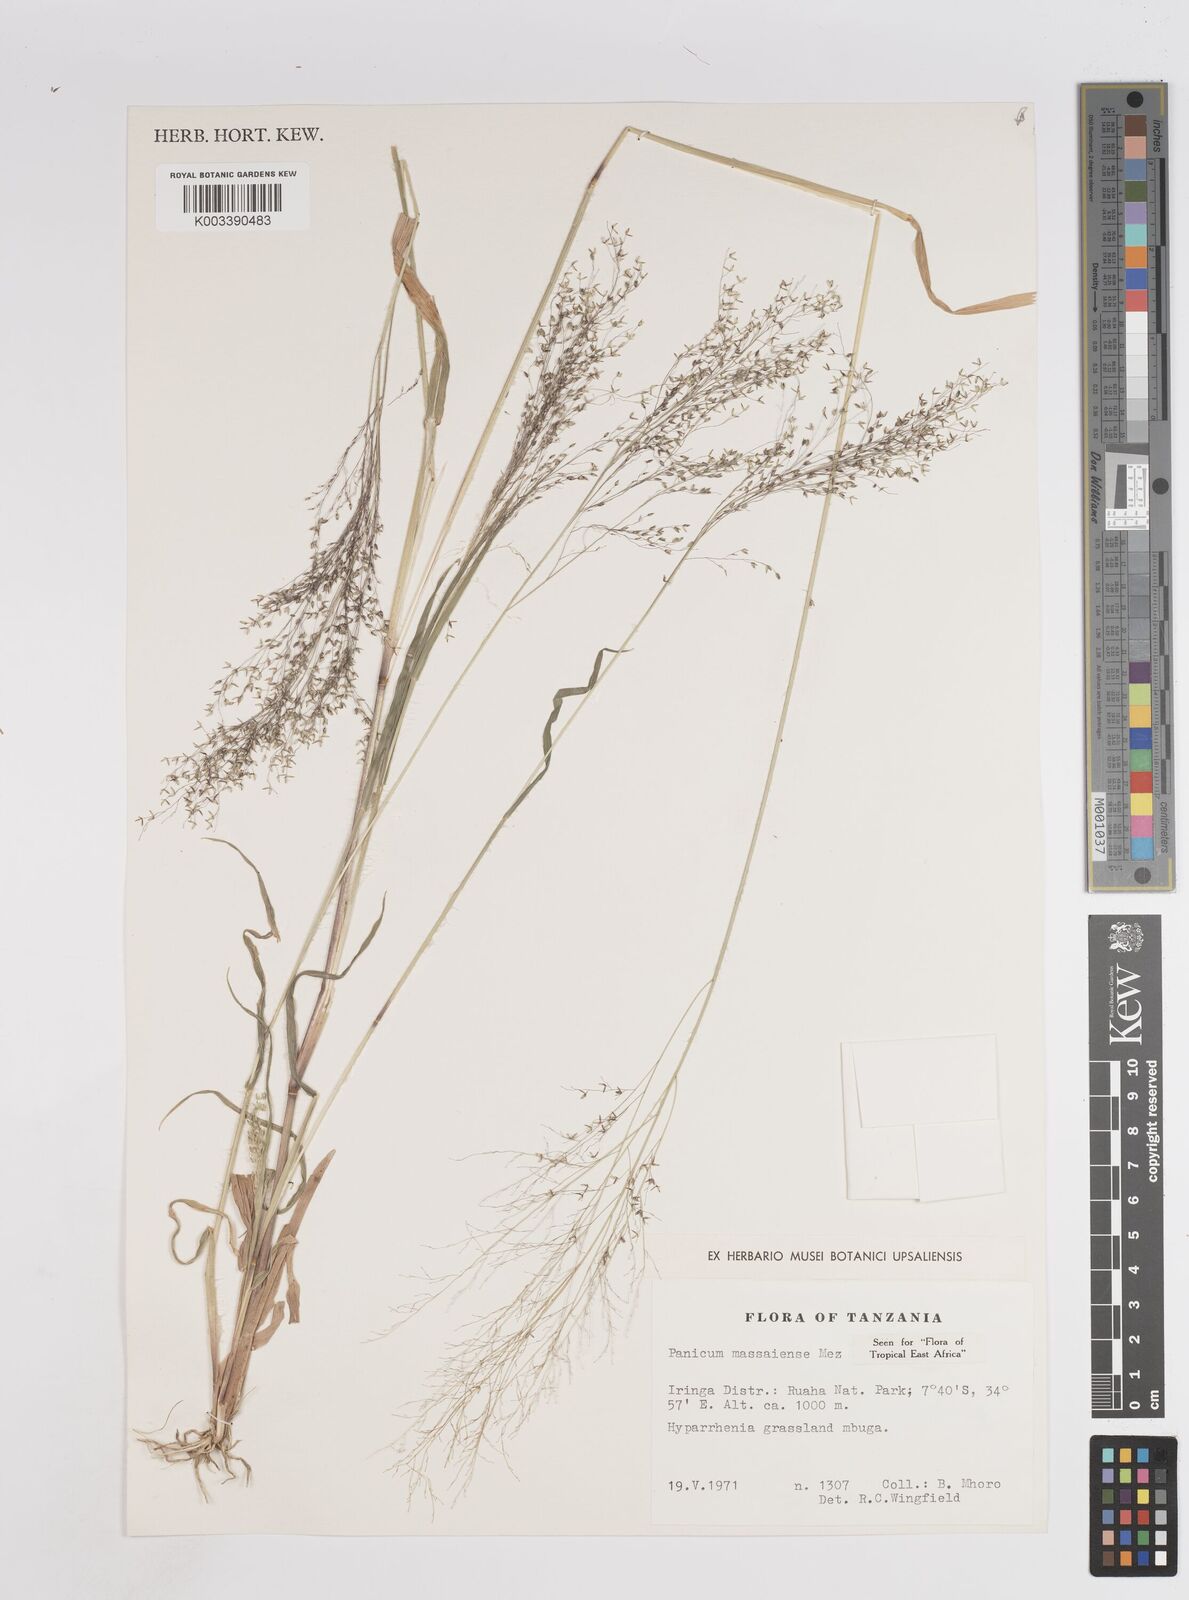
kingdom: Plantae
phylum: Tracheophyta
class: Liliopsida
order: Poales
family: Poaceae
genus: Panicum
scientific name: Panicum massaiense
